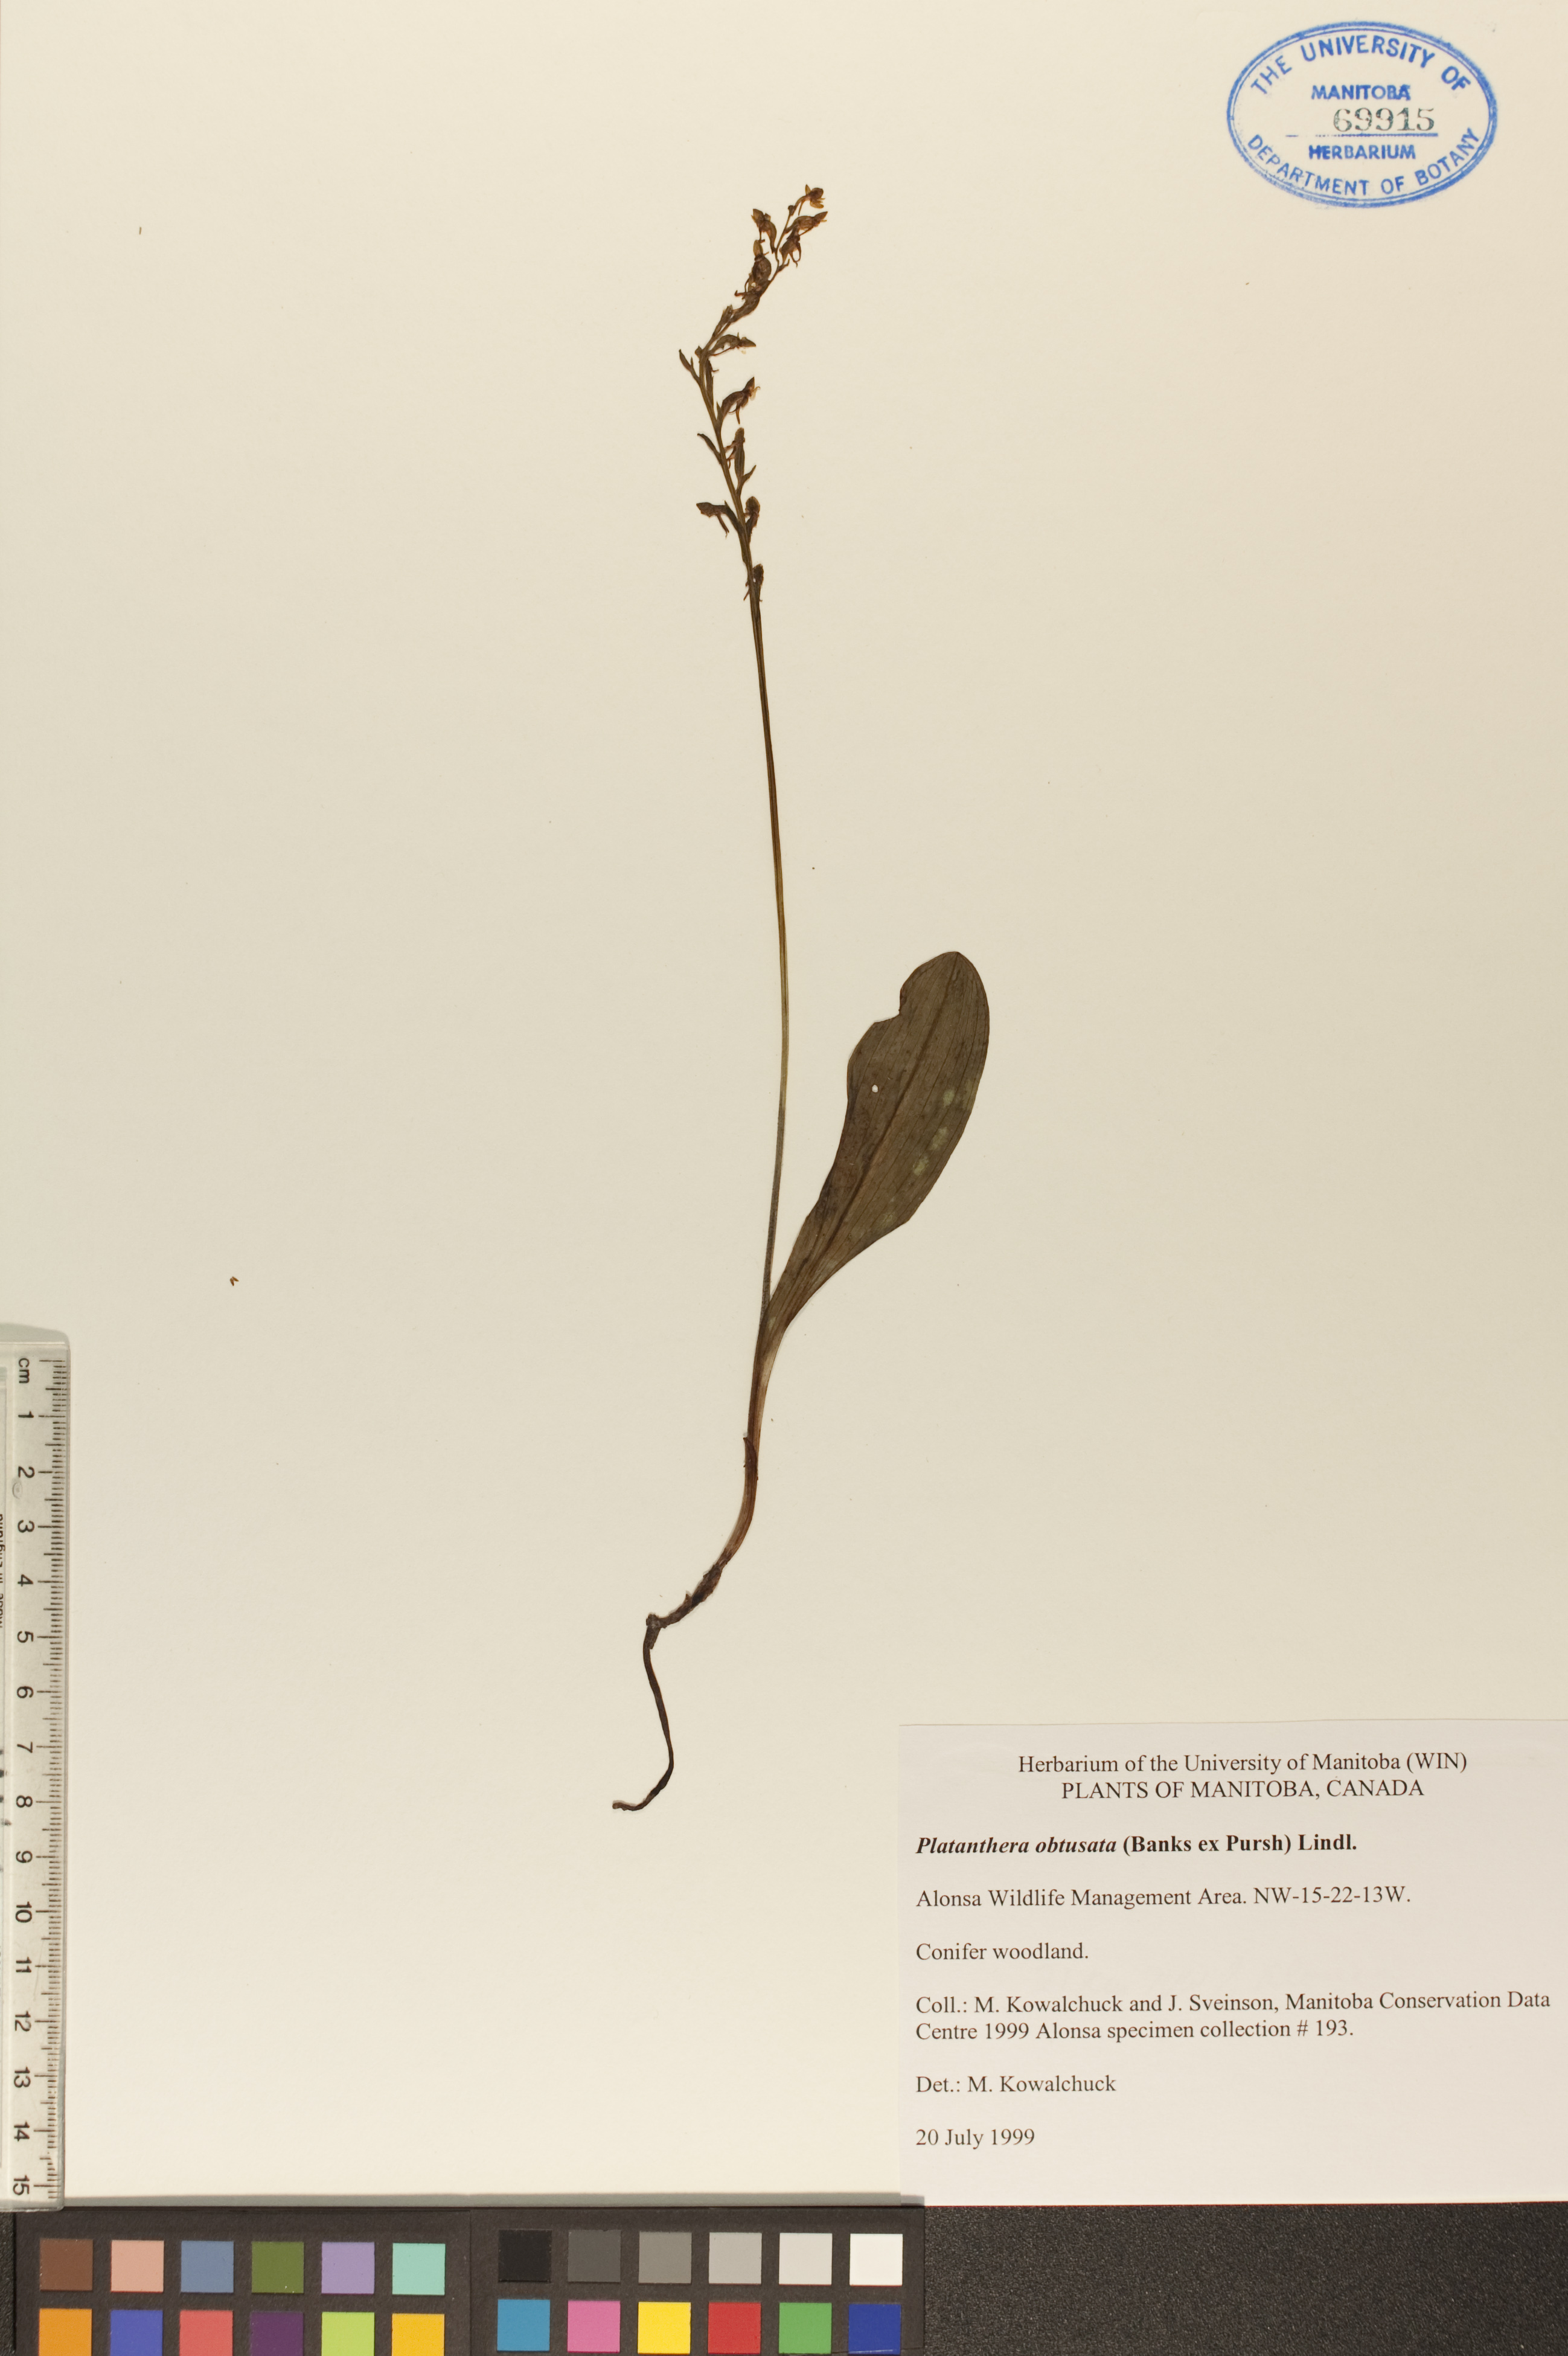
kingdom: Plantae
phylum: Tracheophyta
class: Liliopsida
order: Asparagales
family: Orchidaceae
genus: Platanthera
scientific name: Platanthera obtusata
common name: Blunt bog orchid
